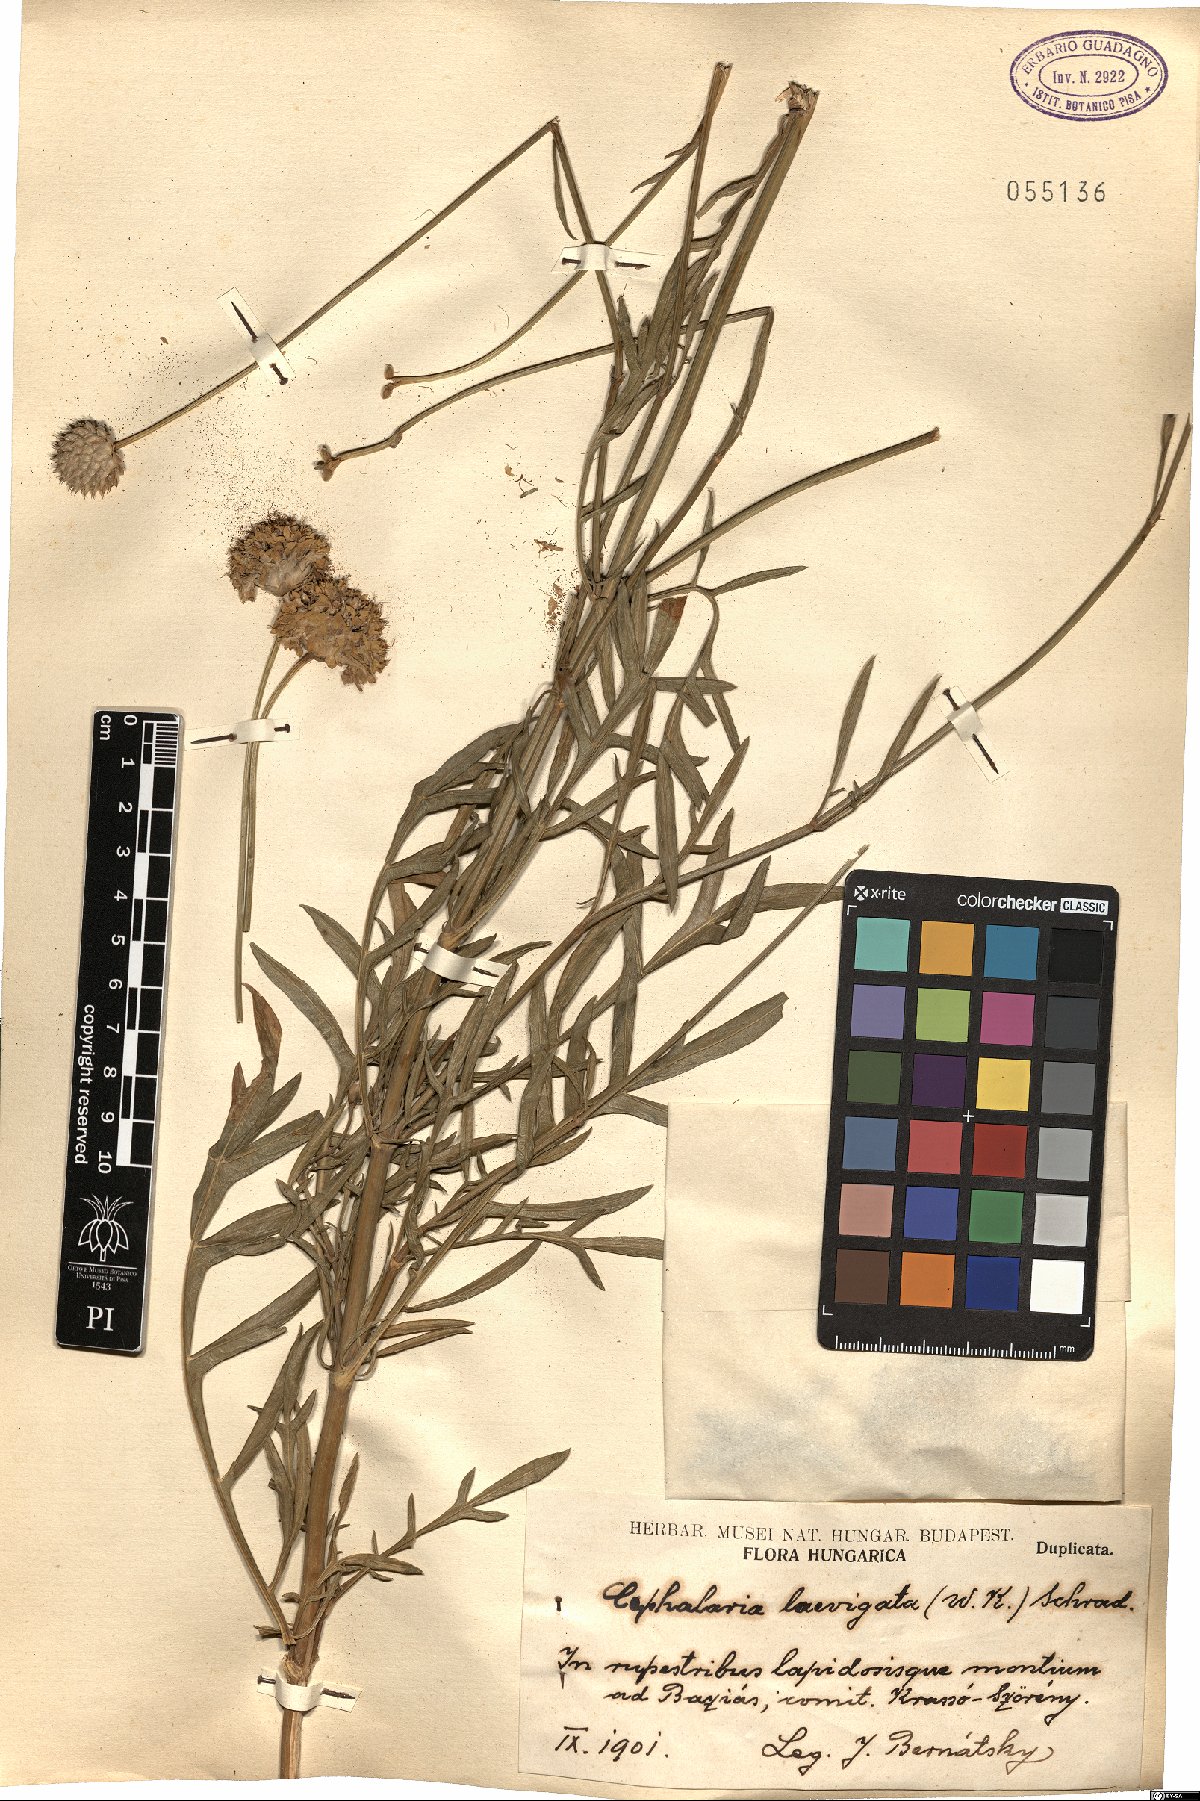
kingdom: Plantae
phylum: Tracheophyta
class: Magnoliopsida
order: Dipsacales
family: Caprifoliaceae
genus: Cephalaria
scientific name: Cephalaria laevigata
